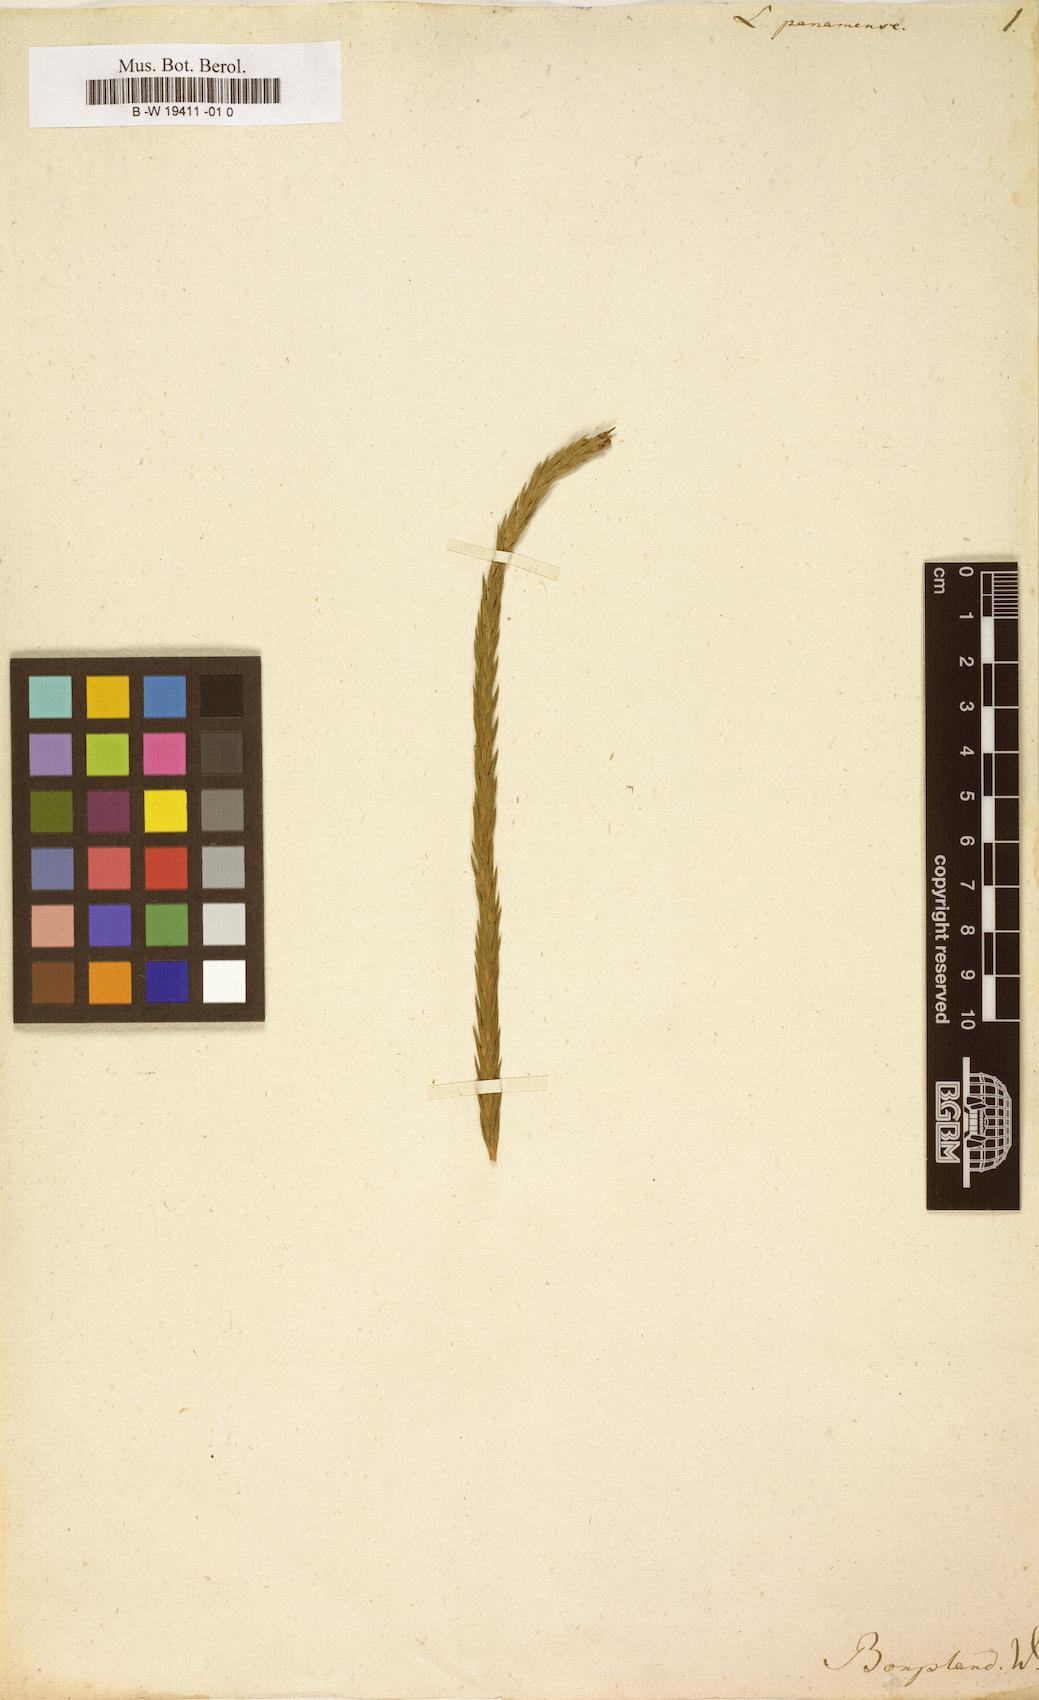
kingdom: Plantae
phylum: Tracheophyta
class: Lycopodiopsida
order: Lycopodiales
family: Lycopodiaceae
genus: Lycopodium
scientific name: Lycopodium panamense
